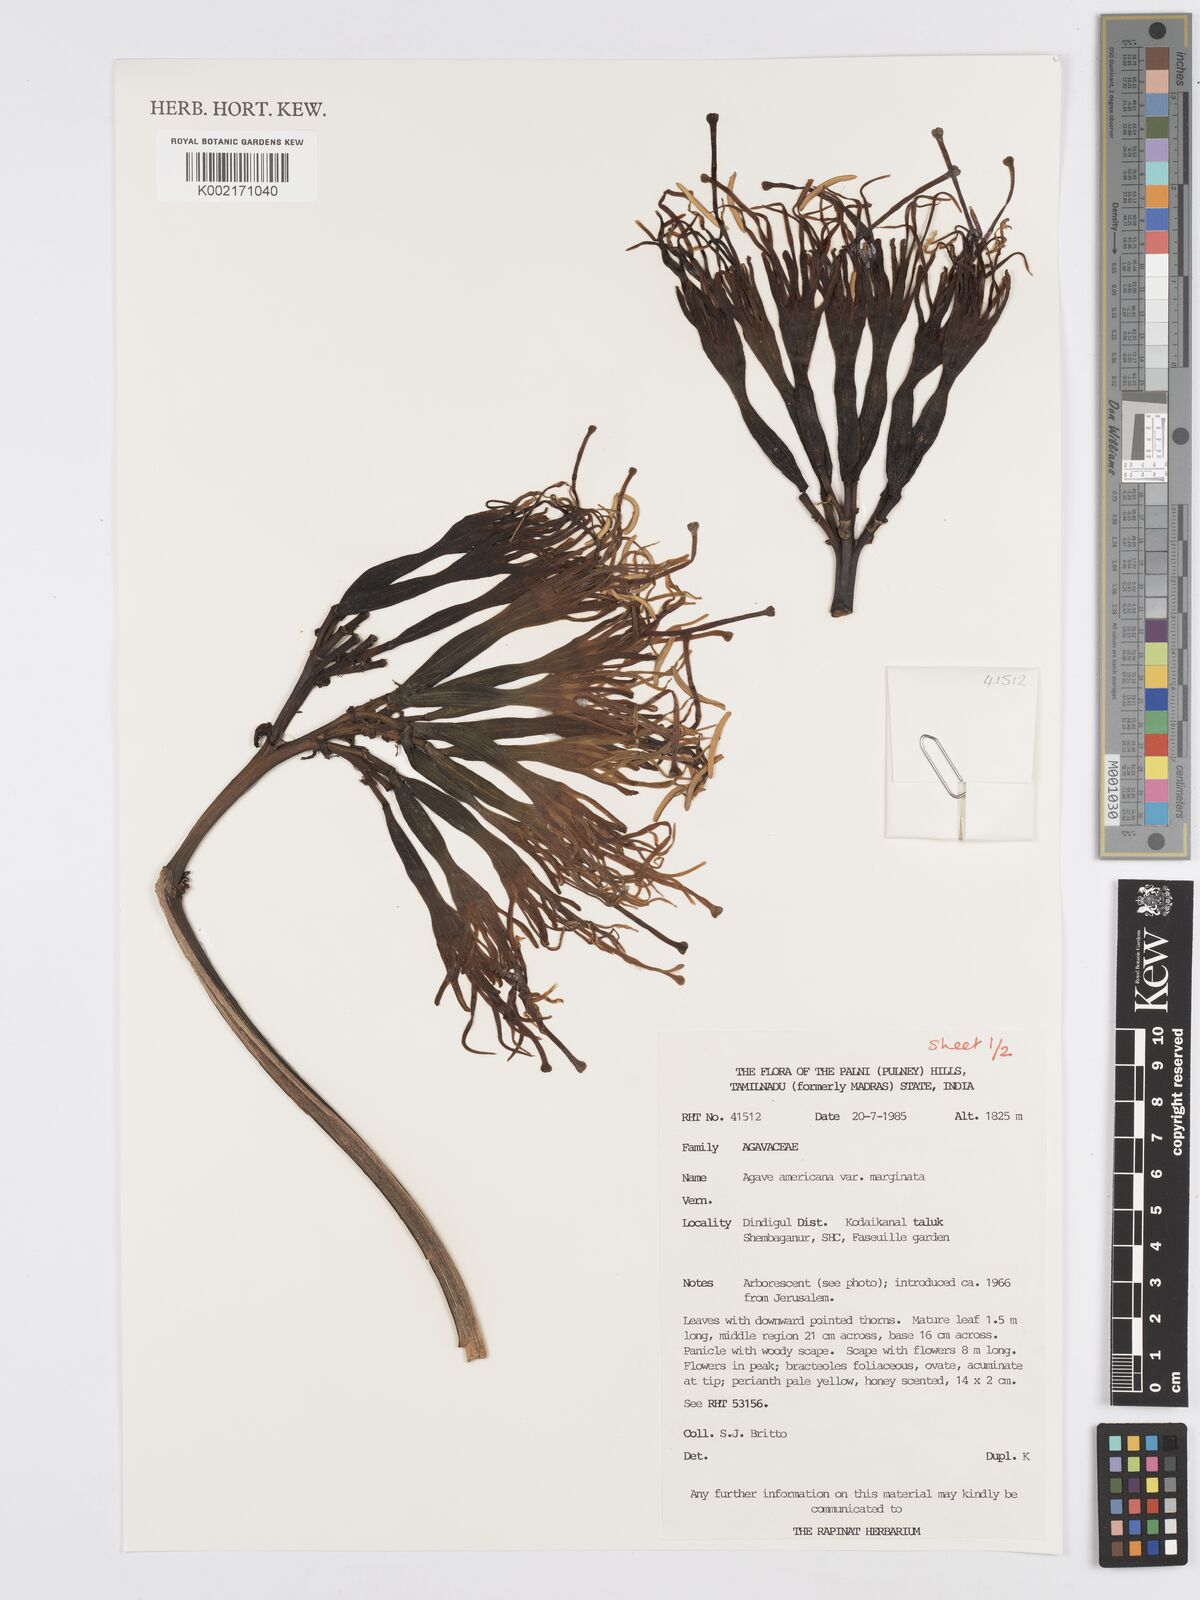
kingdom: Plantae
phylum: Tracheophyta
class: Liliopsida
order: Asparagales
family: Asparagaceae
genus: Agave
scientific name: Agave americana
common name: Centuryplant
